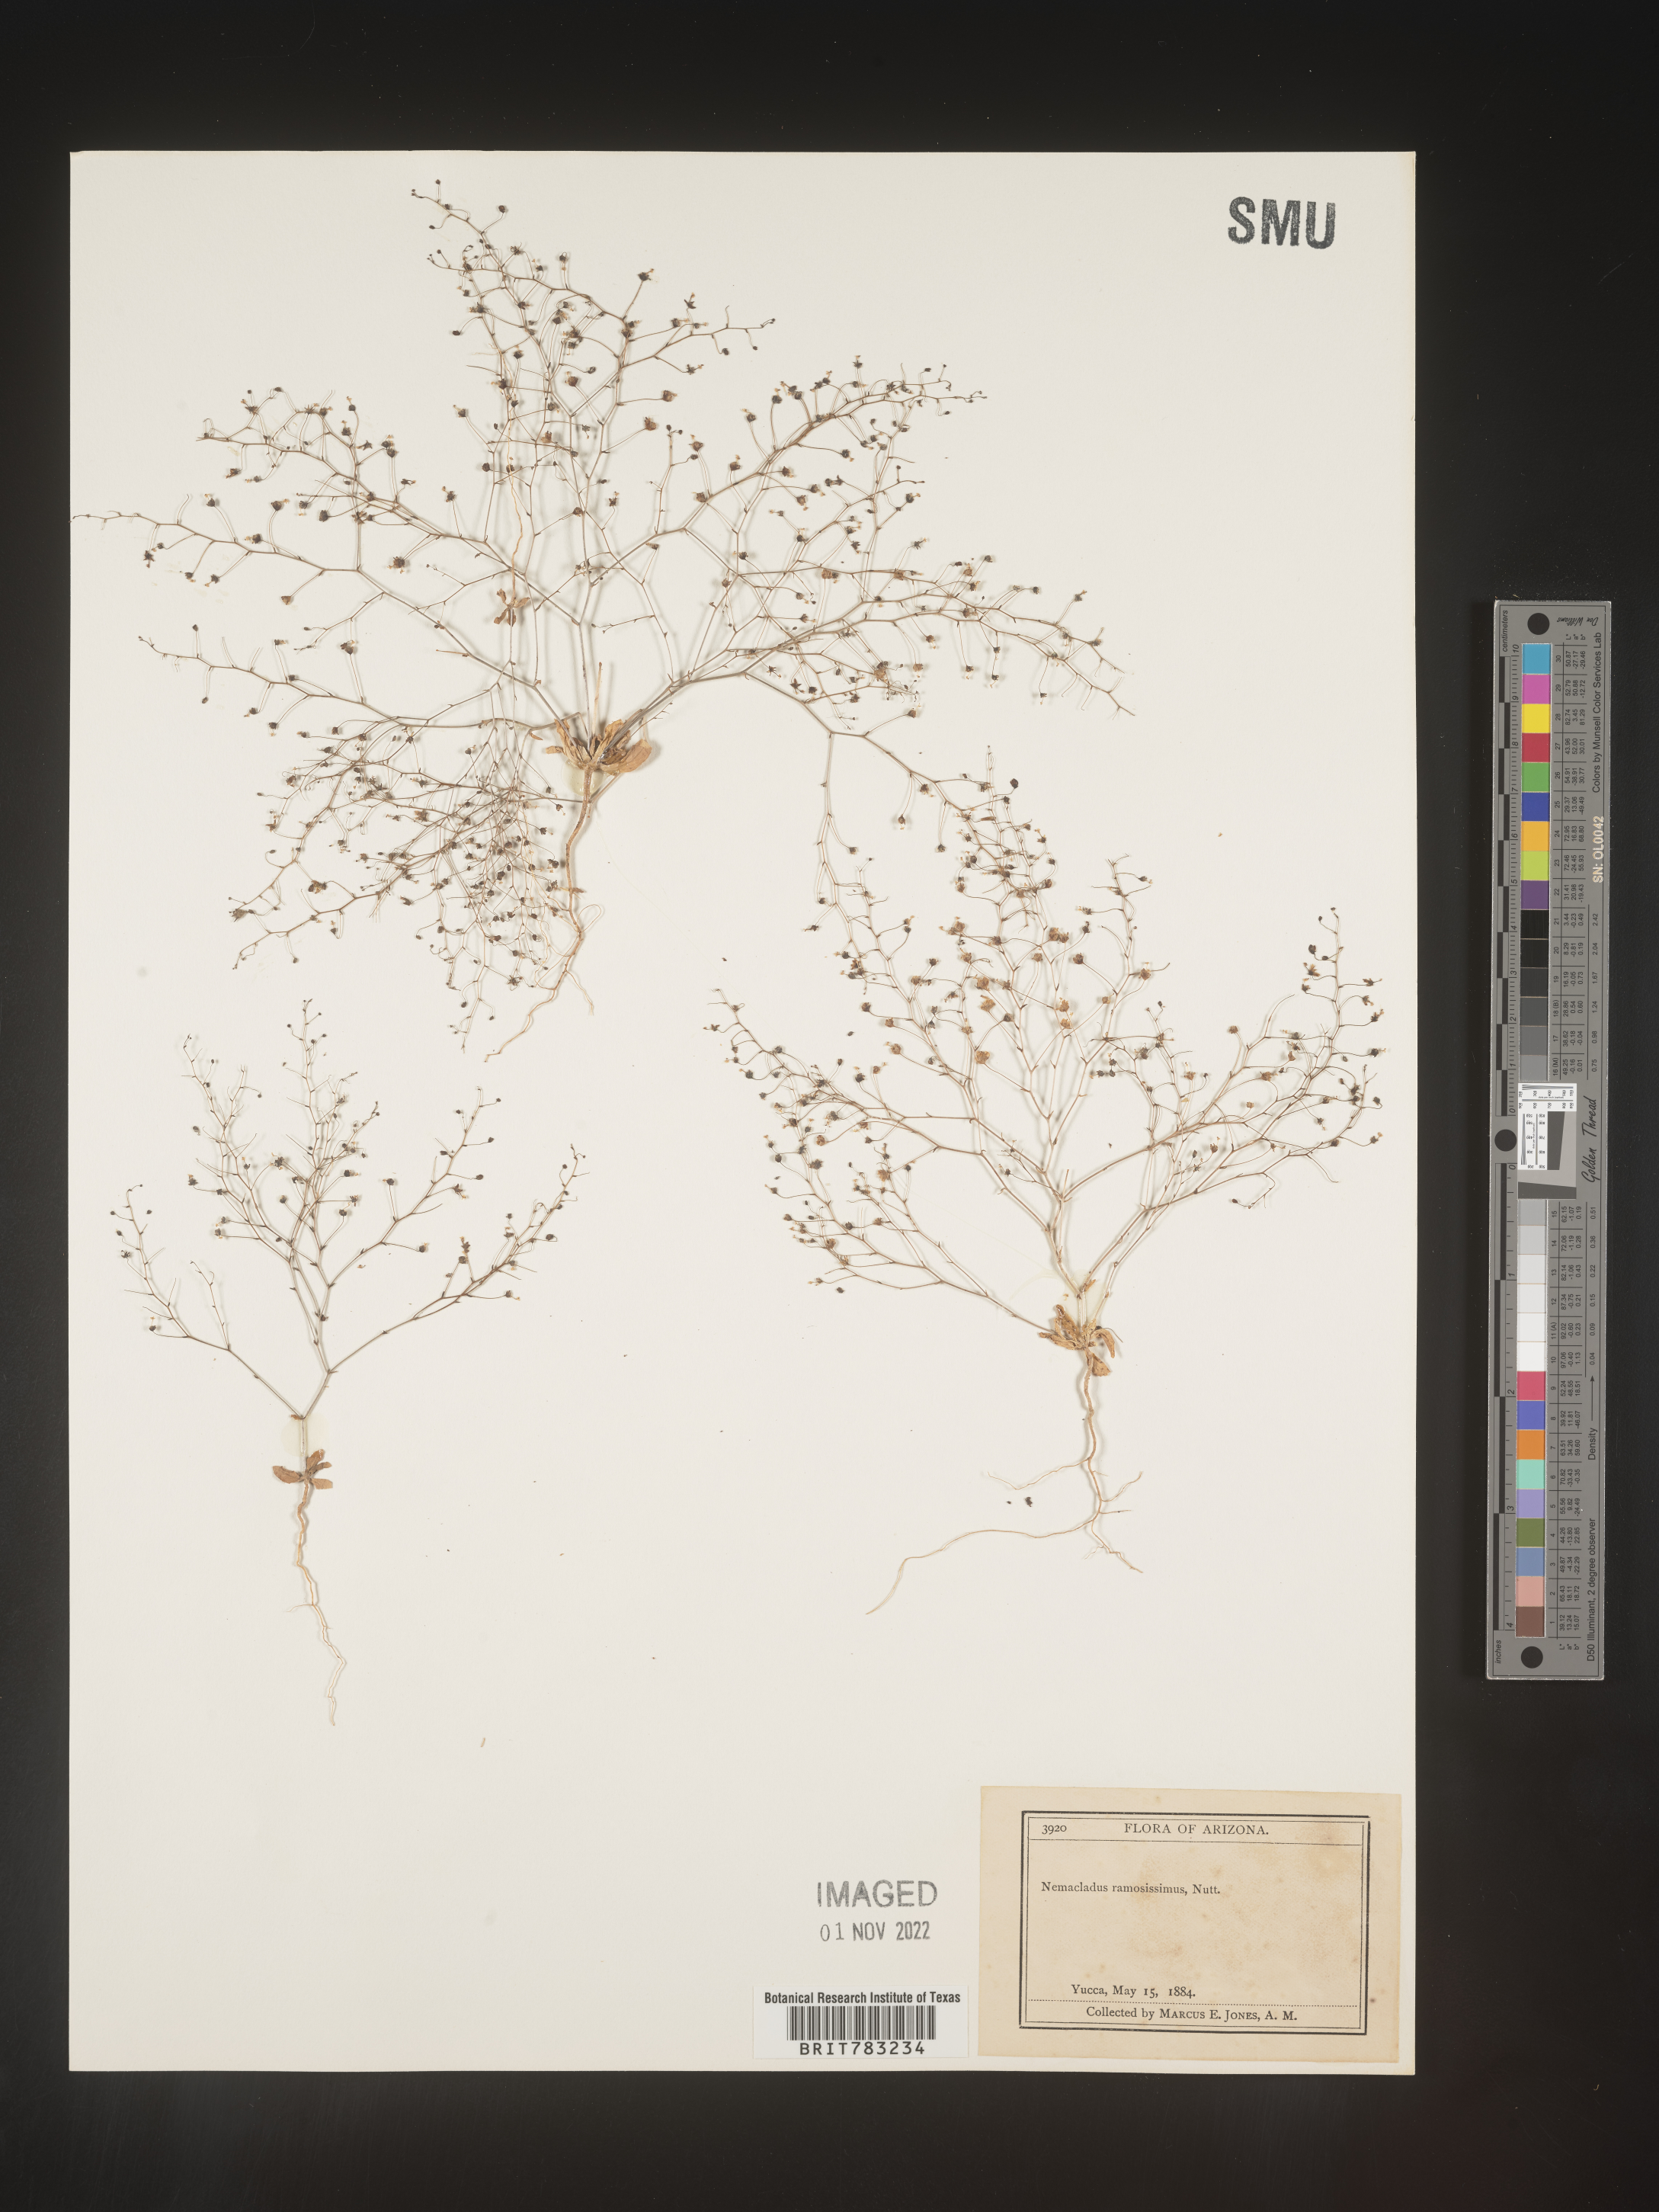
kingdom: Plantae
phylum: Tracheophyta
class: Magnoliopsida
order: Asterales
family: Campanulaceae
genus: Nemacladus
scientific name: Nemacladus
